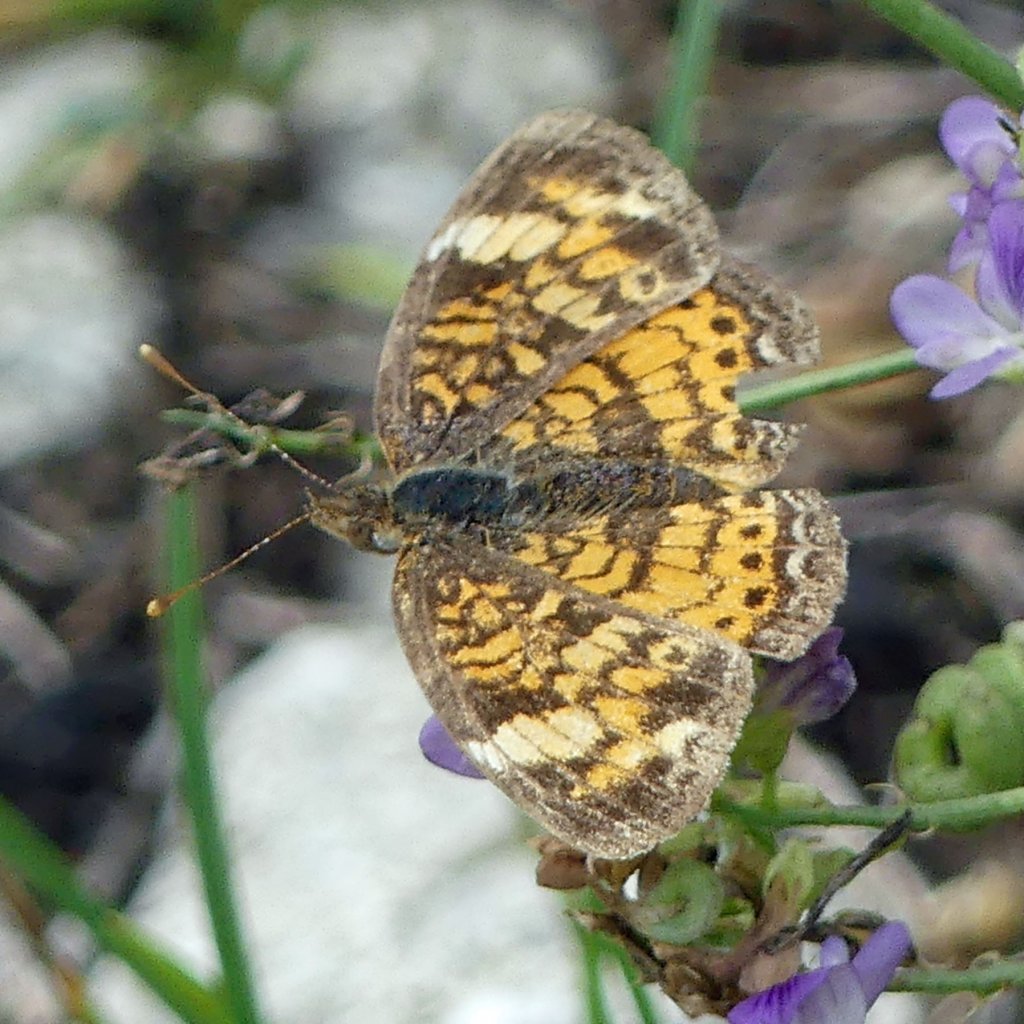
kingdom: Animalia
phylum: Arthropoda
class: Insecta
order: Lepidoptera
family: Nymphalidae
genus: Phyciodes
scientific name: Phyciodes tharos
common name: Northern Crescent
